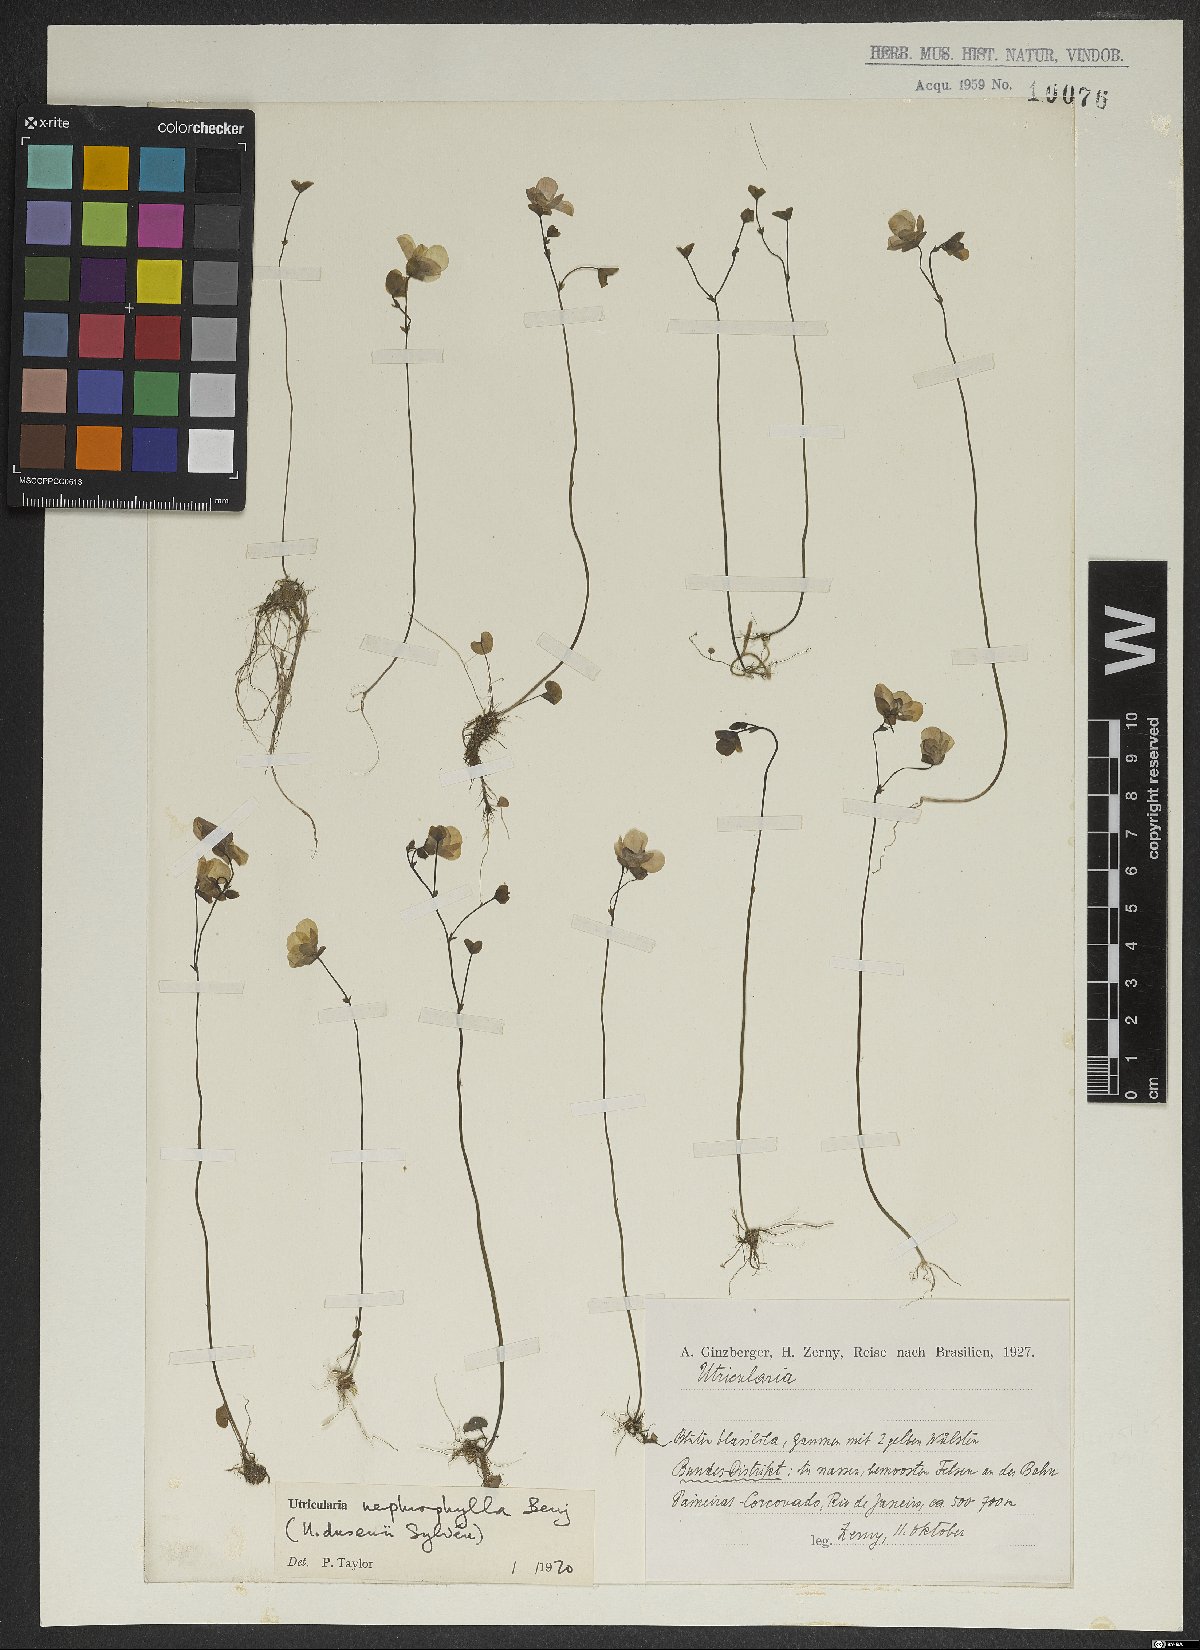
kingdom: Plantae
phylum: Tracheophyta
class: Magnoliopsida
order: Lamiales
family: Lentibulariaceae
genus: Utricularia
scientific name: Utricularia nephrophylla
